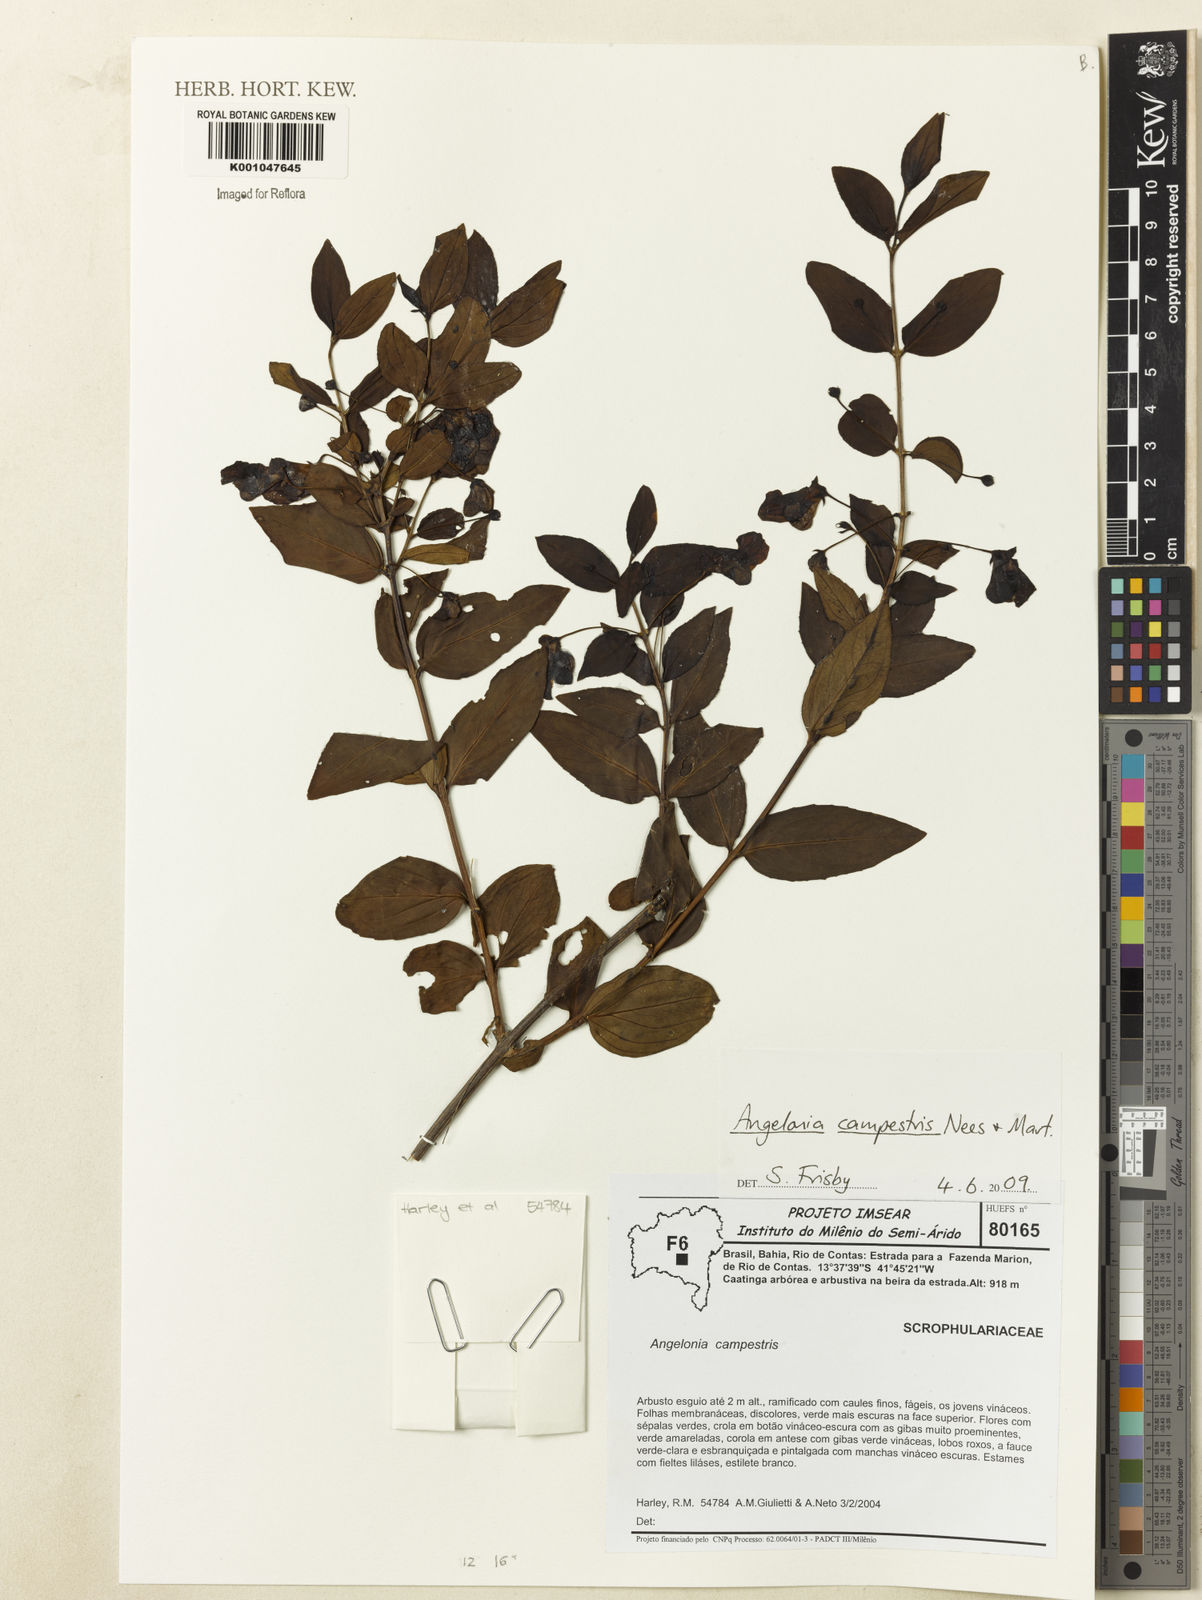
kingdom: Plantae
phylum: Tracheophyta
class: Magnoliopsida
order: Lamiales
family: Plantaginaceae
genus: Angelonia
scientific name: Angelonia campestris
